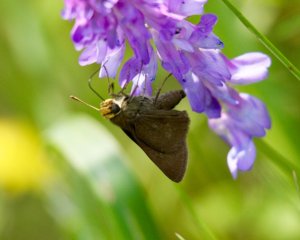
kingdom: Animalia
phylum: Arthropoda
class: Insecta
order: Lepidoptera
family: Hesperiidae
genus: Euphyes
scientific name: Euphyes vestris
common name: Dun Skipper
